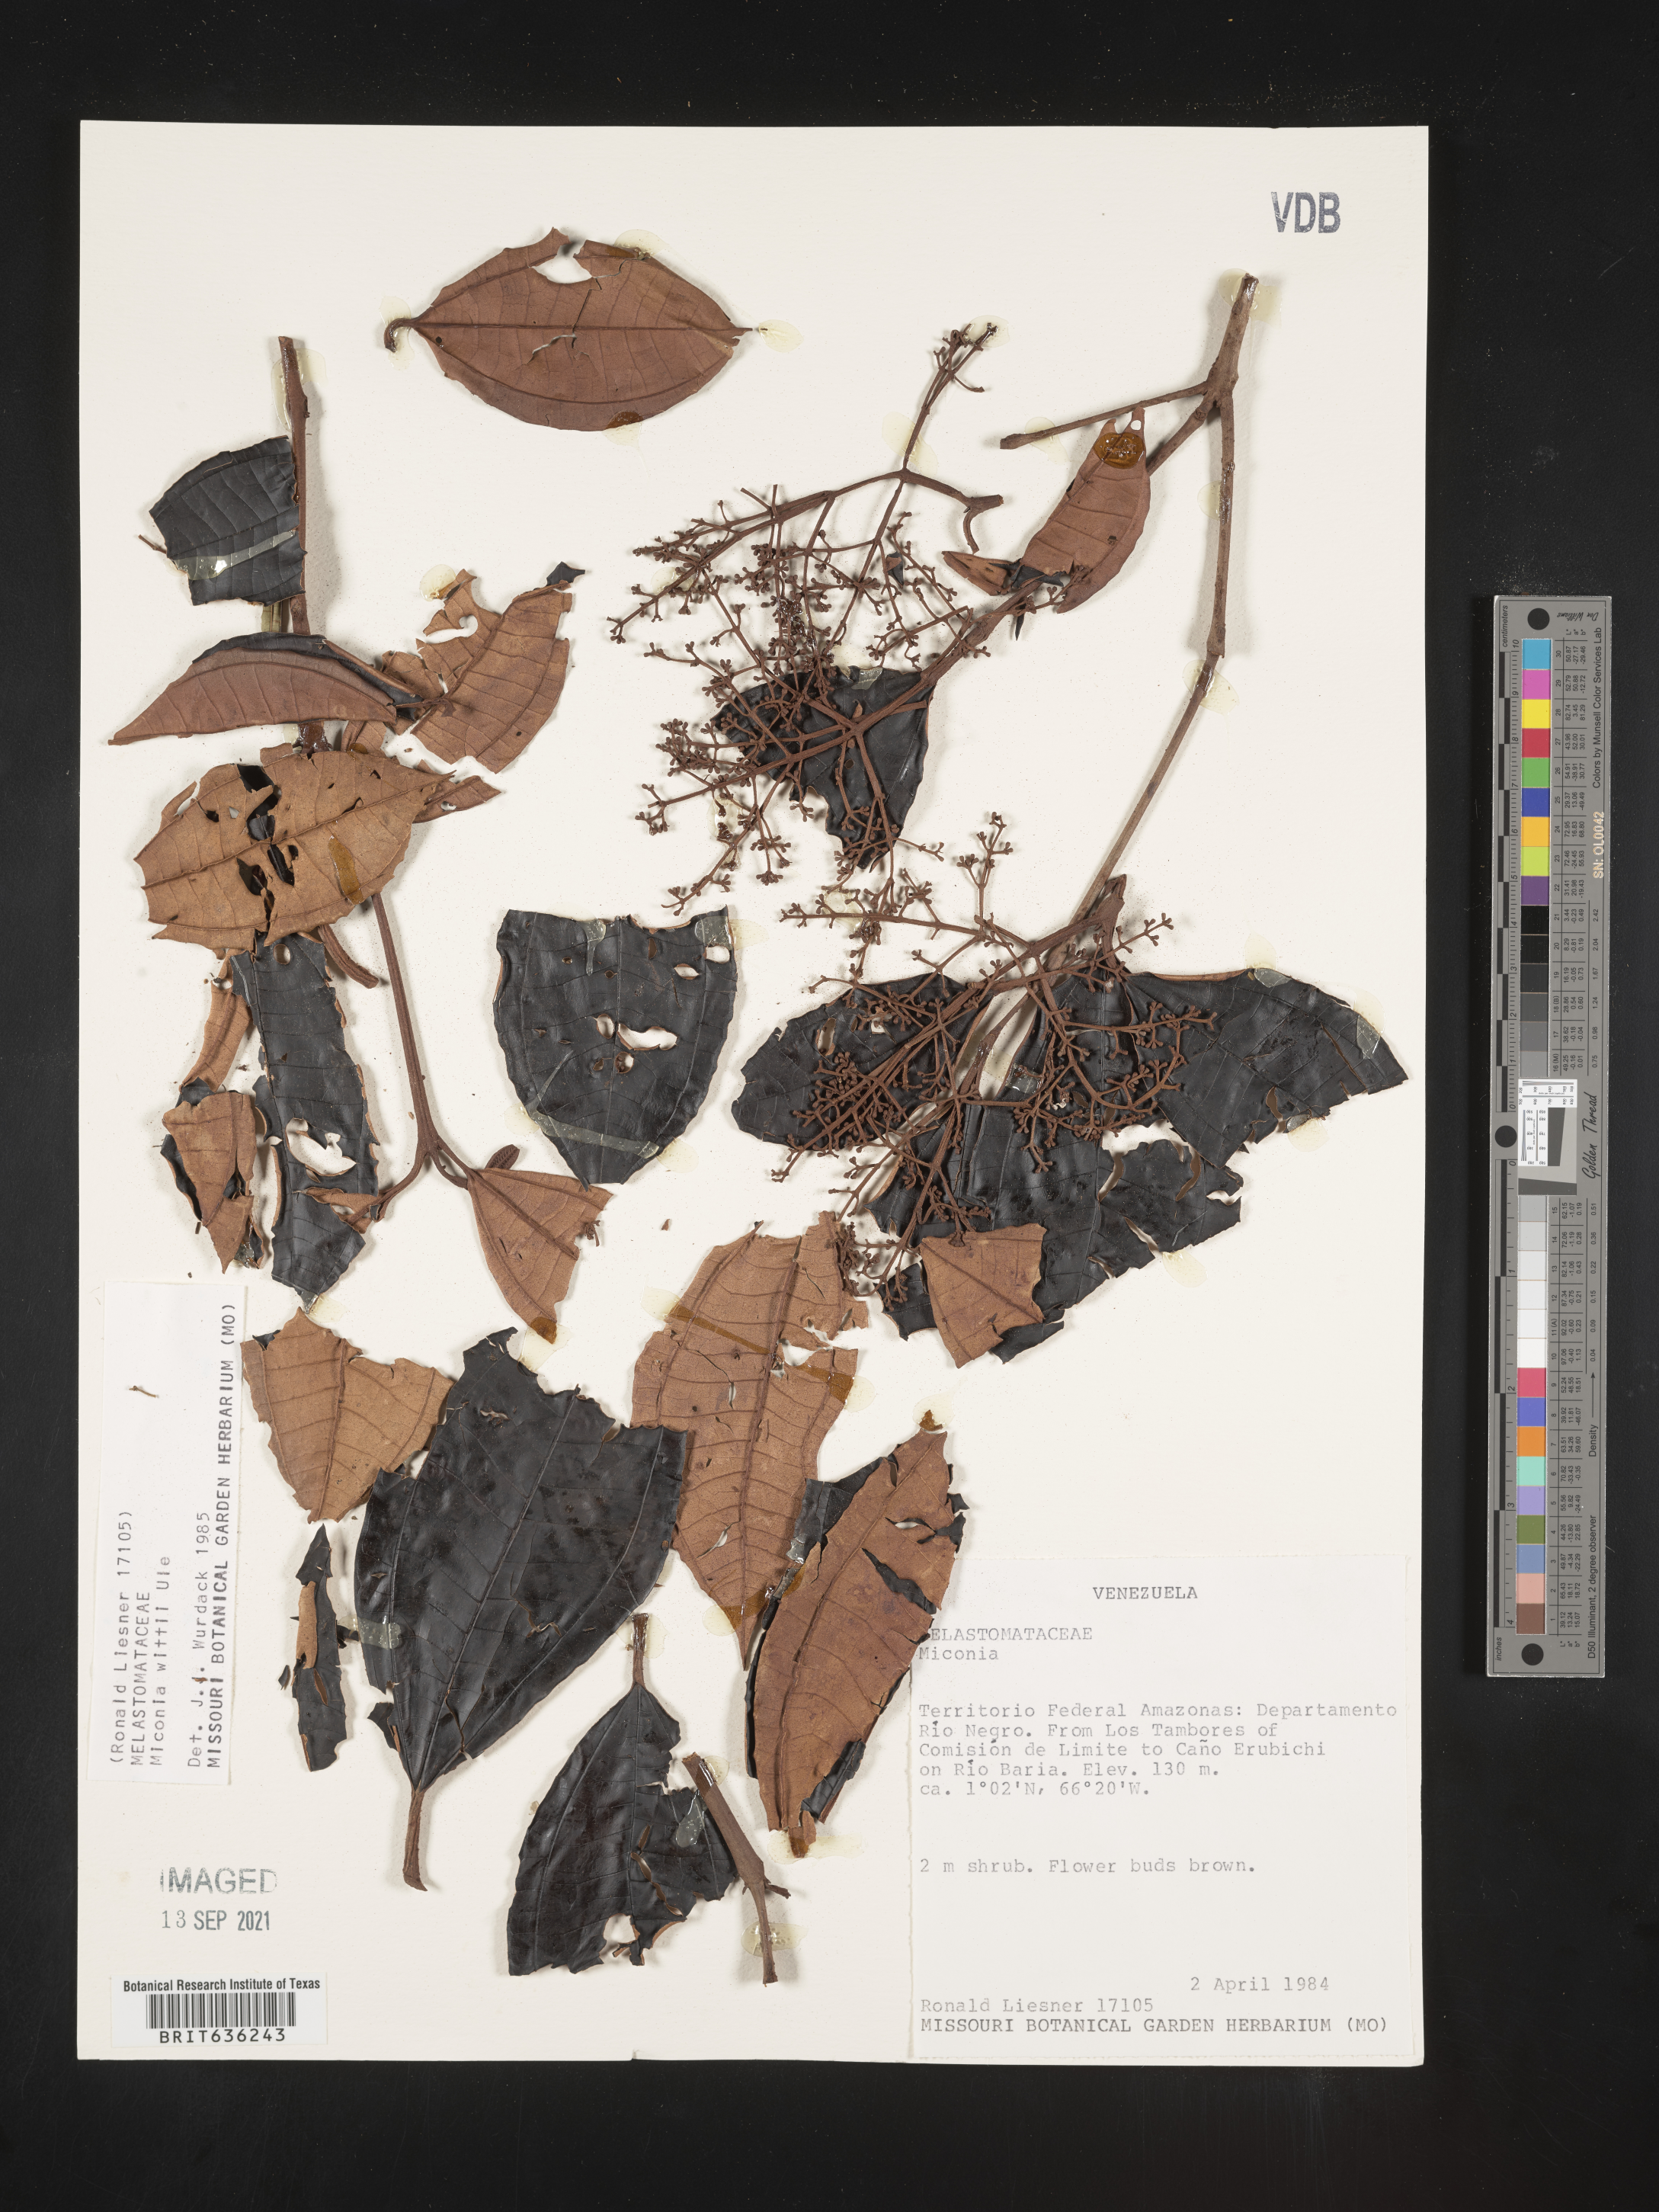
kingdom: Plantae
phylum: Tracheophyta
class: Magnoliopsida
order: Myrtales
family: Melastomataceae
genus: Miconia
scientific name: Miconia
